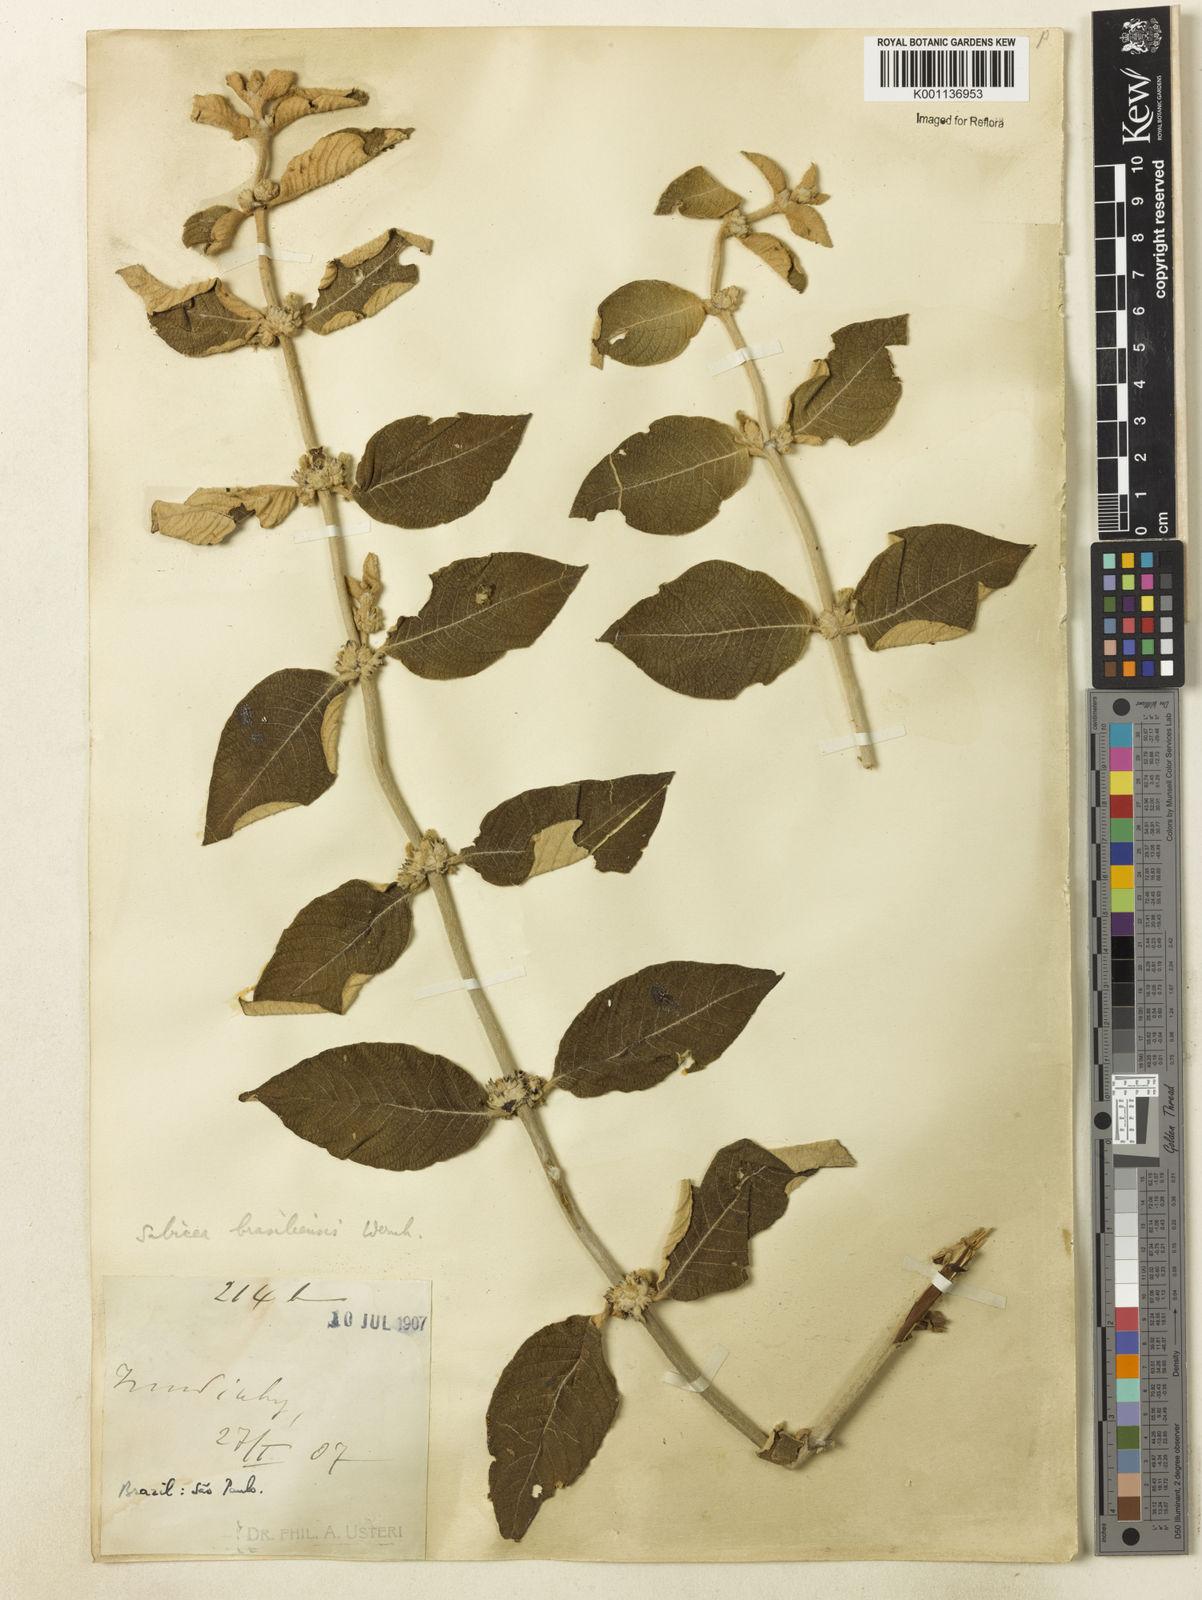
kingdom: Plantae
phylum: Tracheophyta
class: Magnoliopsida
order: Gentianales
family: Rubiaceae
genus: Sabicea
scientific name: Sabicea brasiliensis
